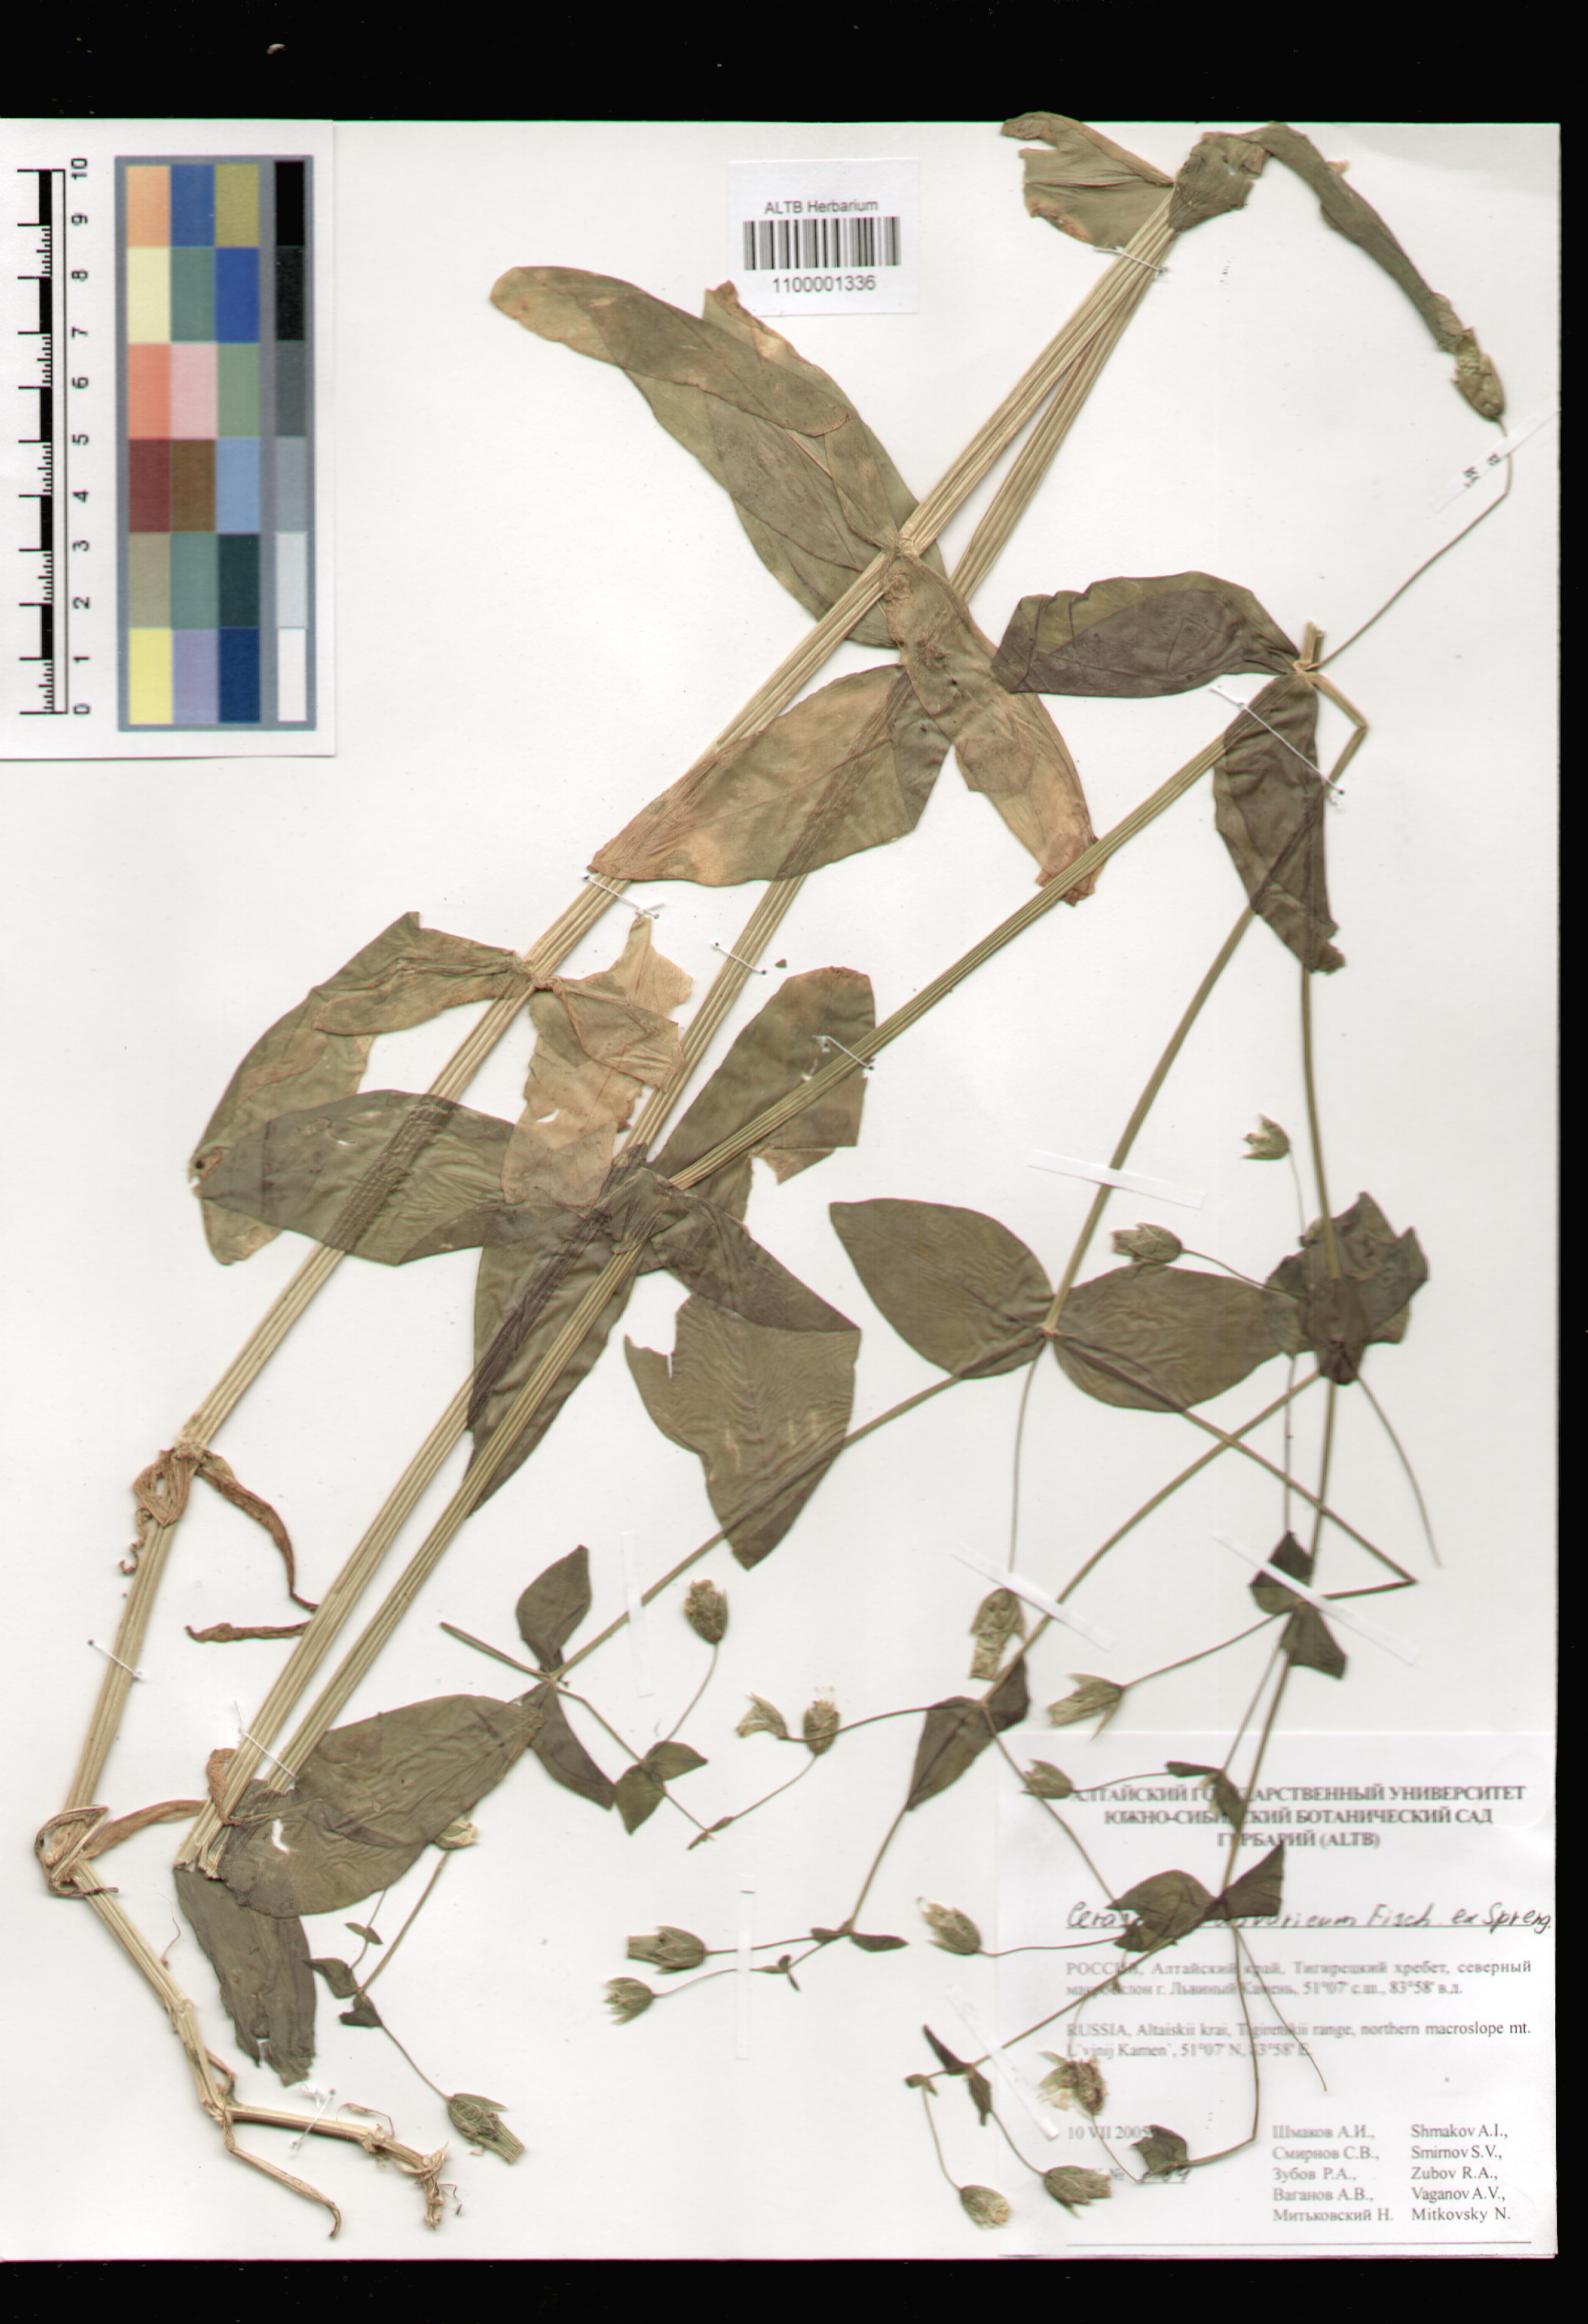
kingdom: Plantae
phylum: Tracheophyta
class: Magnoliopsida
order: Caryophyllales
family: Caryophyllaceae
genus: Dichodon
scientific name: Dichodon davuricum
